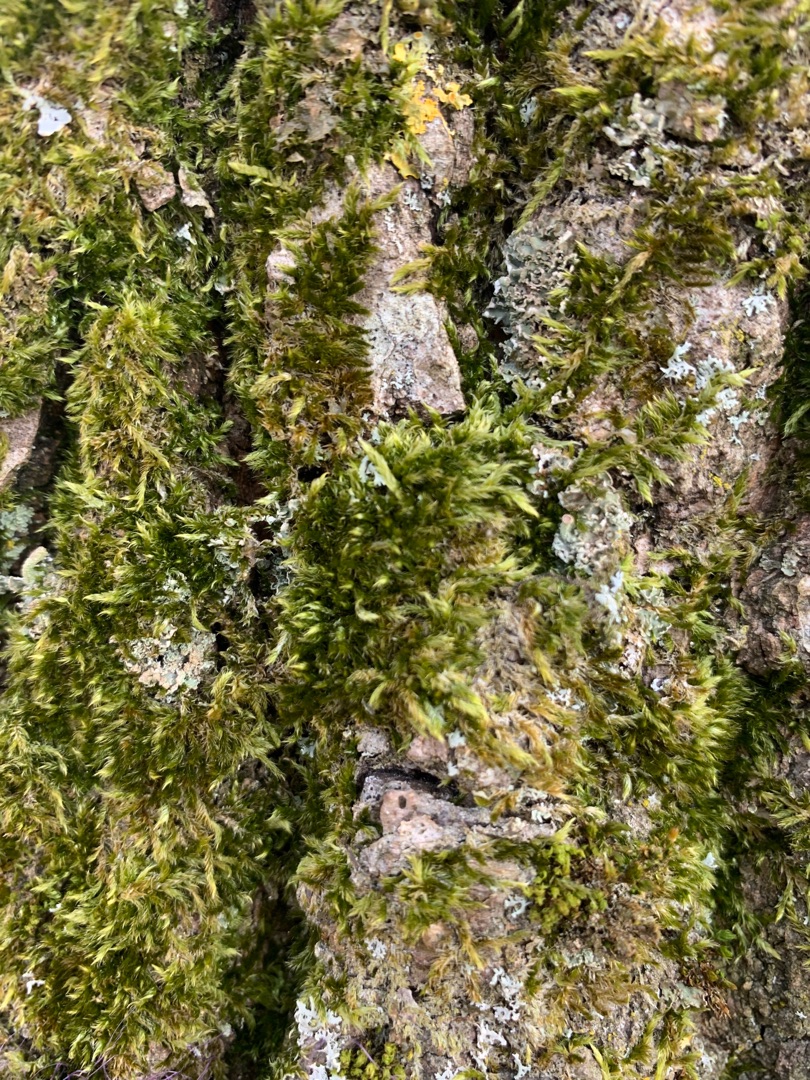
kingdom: Plantae
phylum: Bryophyta
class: Bryopsida
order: Hypnales
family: Hypnaceae
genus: Hypnum
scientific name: Hypnum
